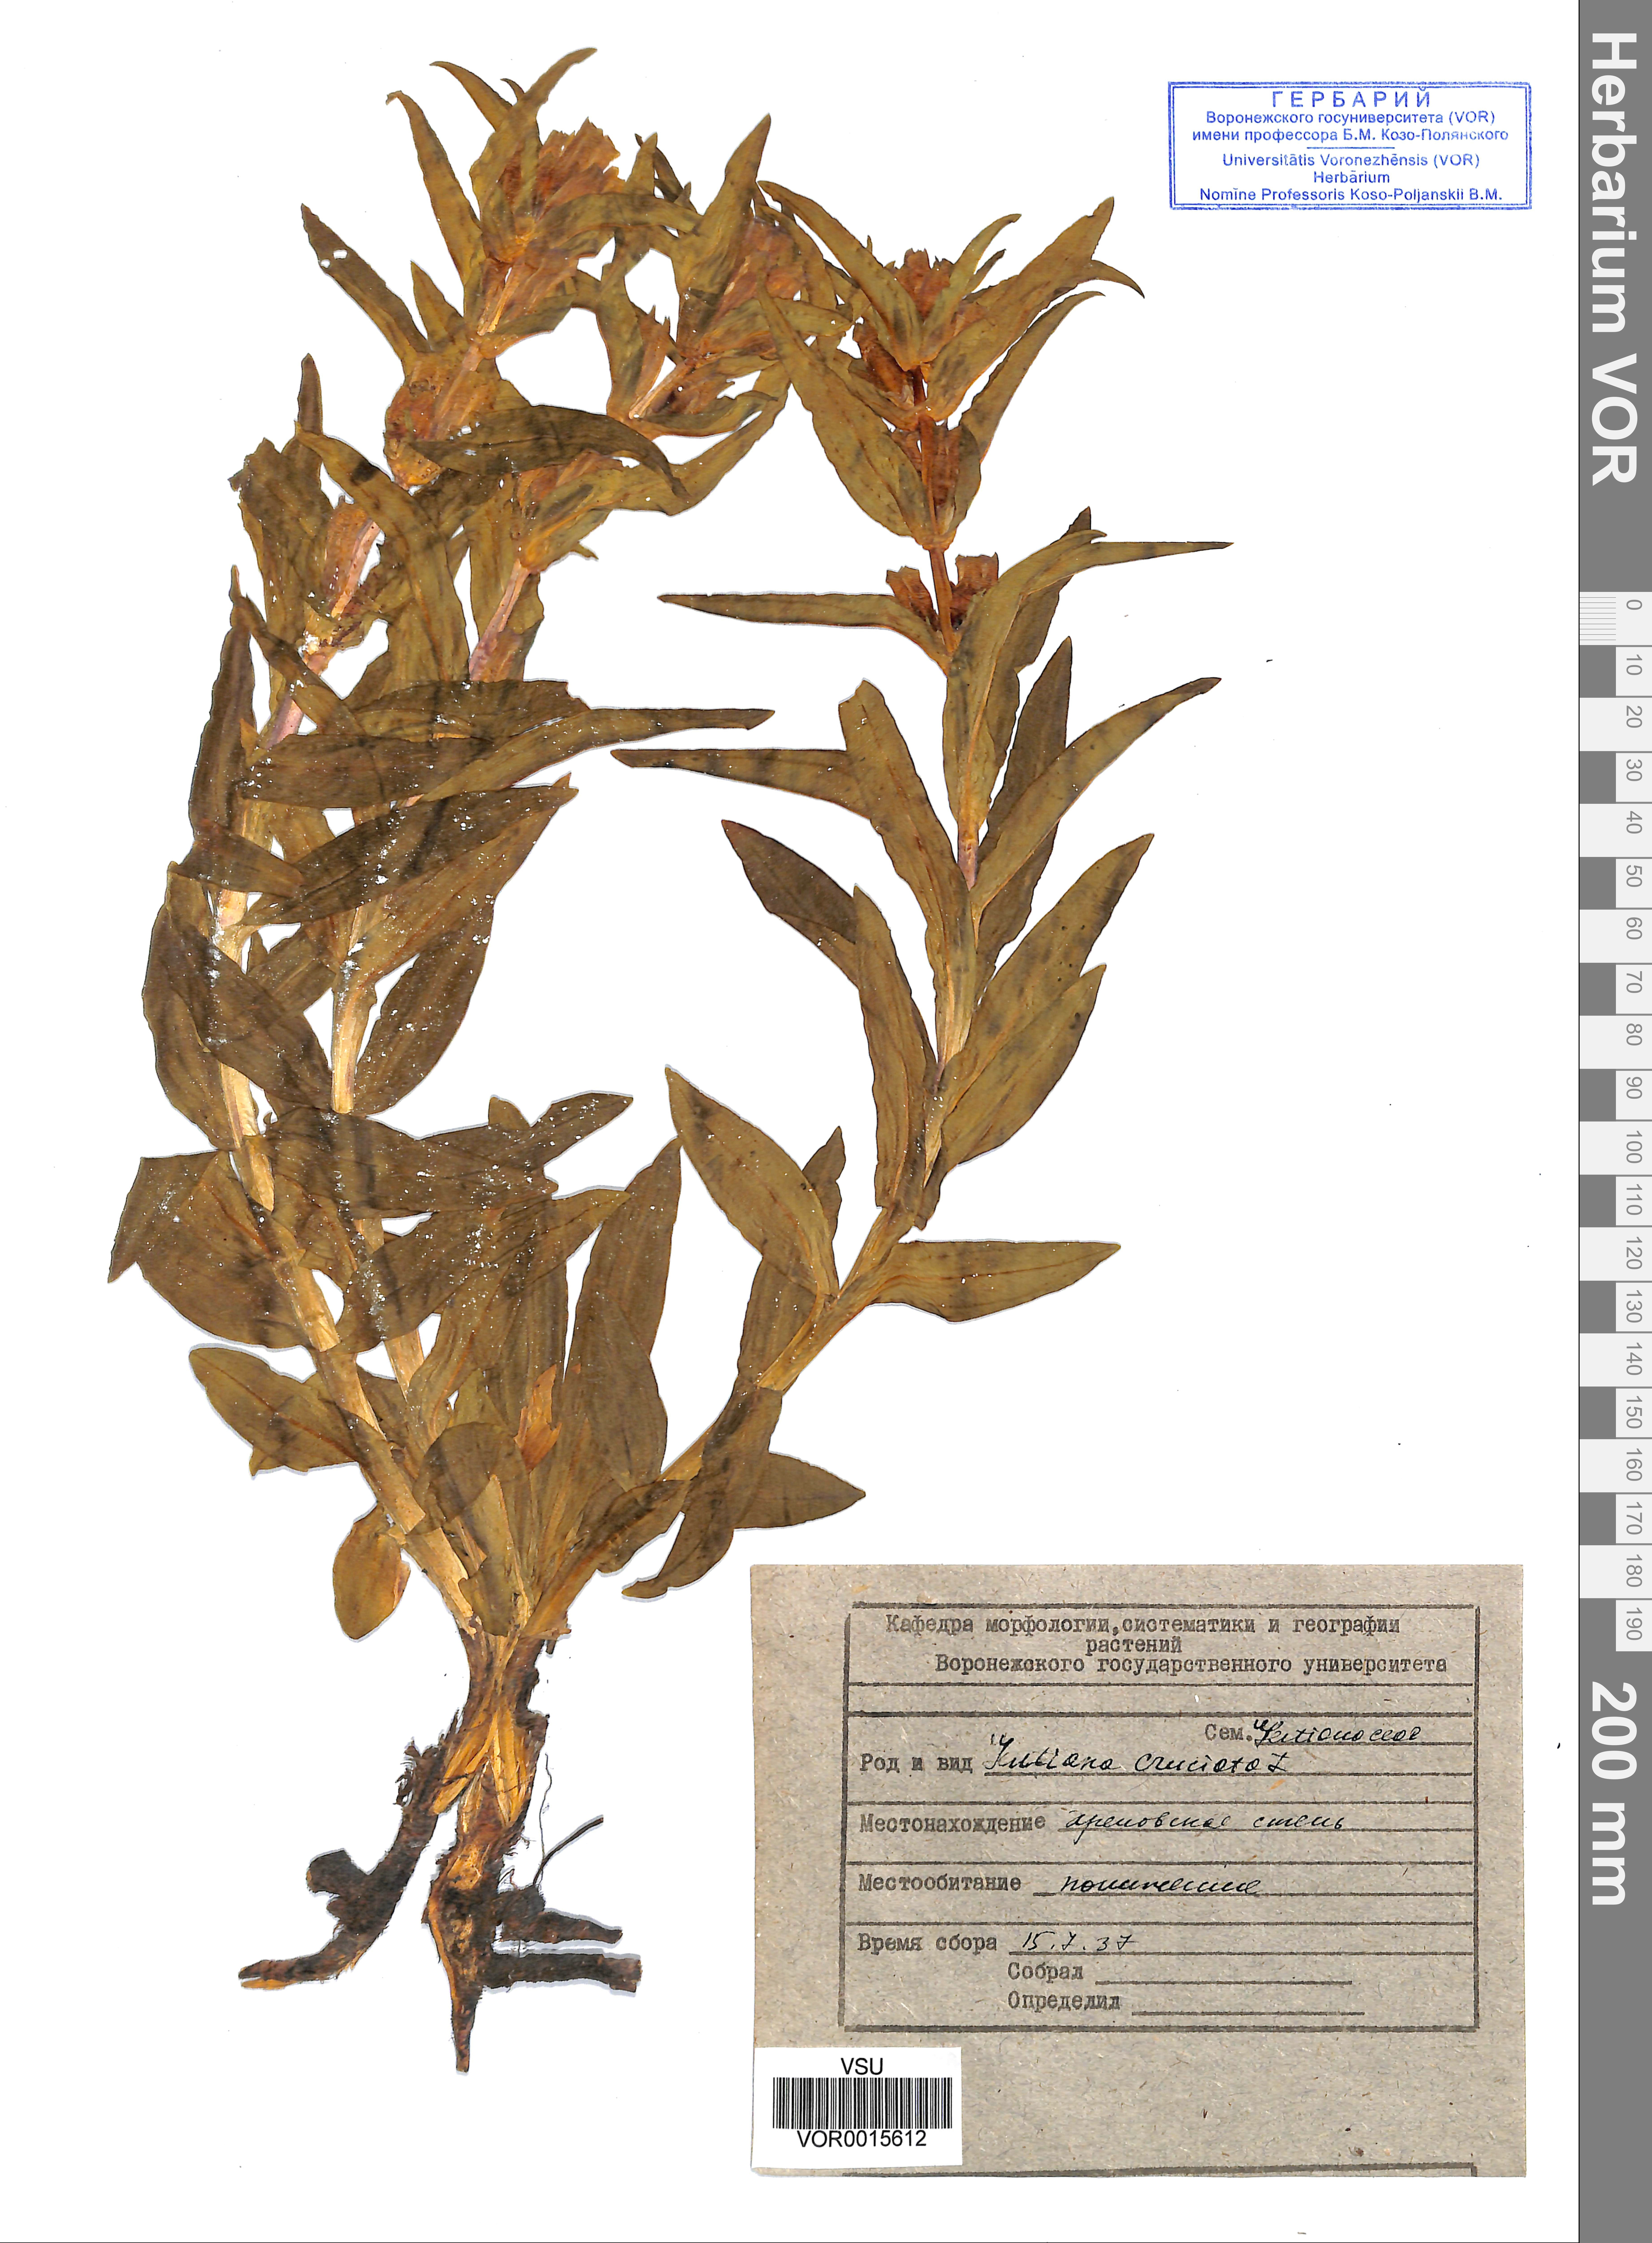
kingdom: Plantae
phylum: Tracheophyta
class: Magnoliopsida
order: Gentianales
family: Gentianaceae
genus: Gentiana
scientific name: Gentiana cruciata
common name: Cross gentian
